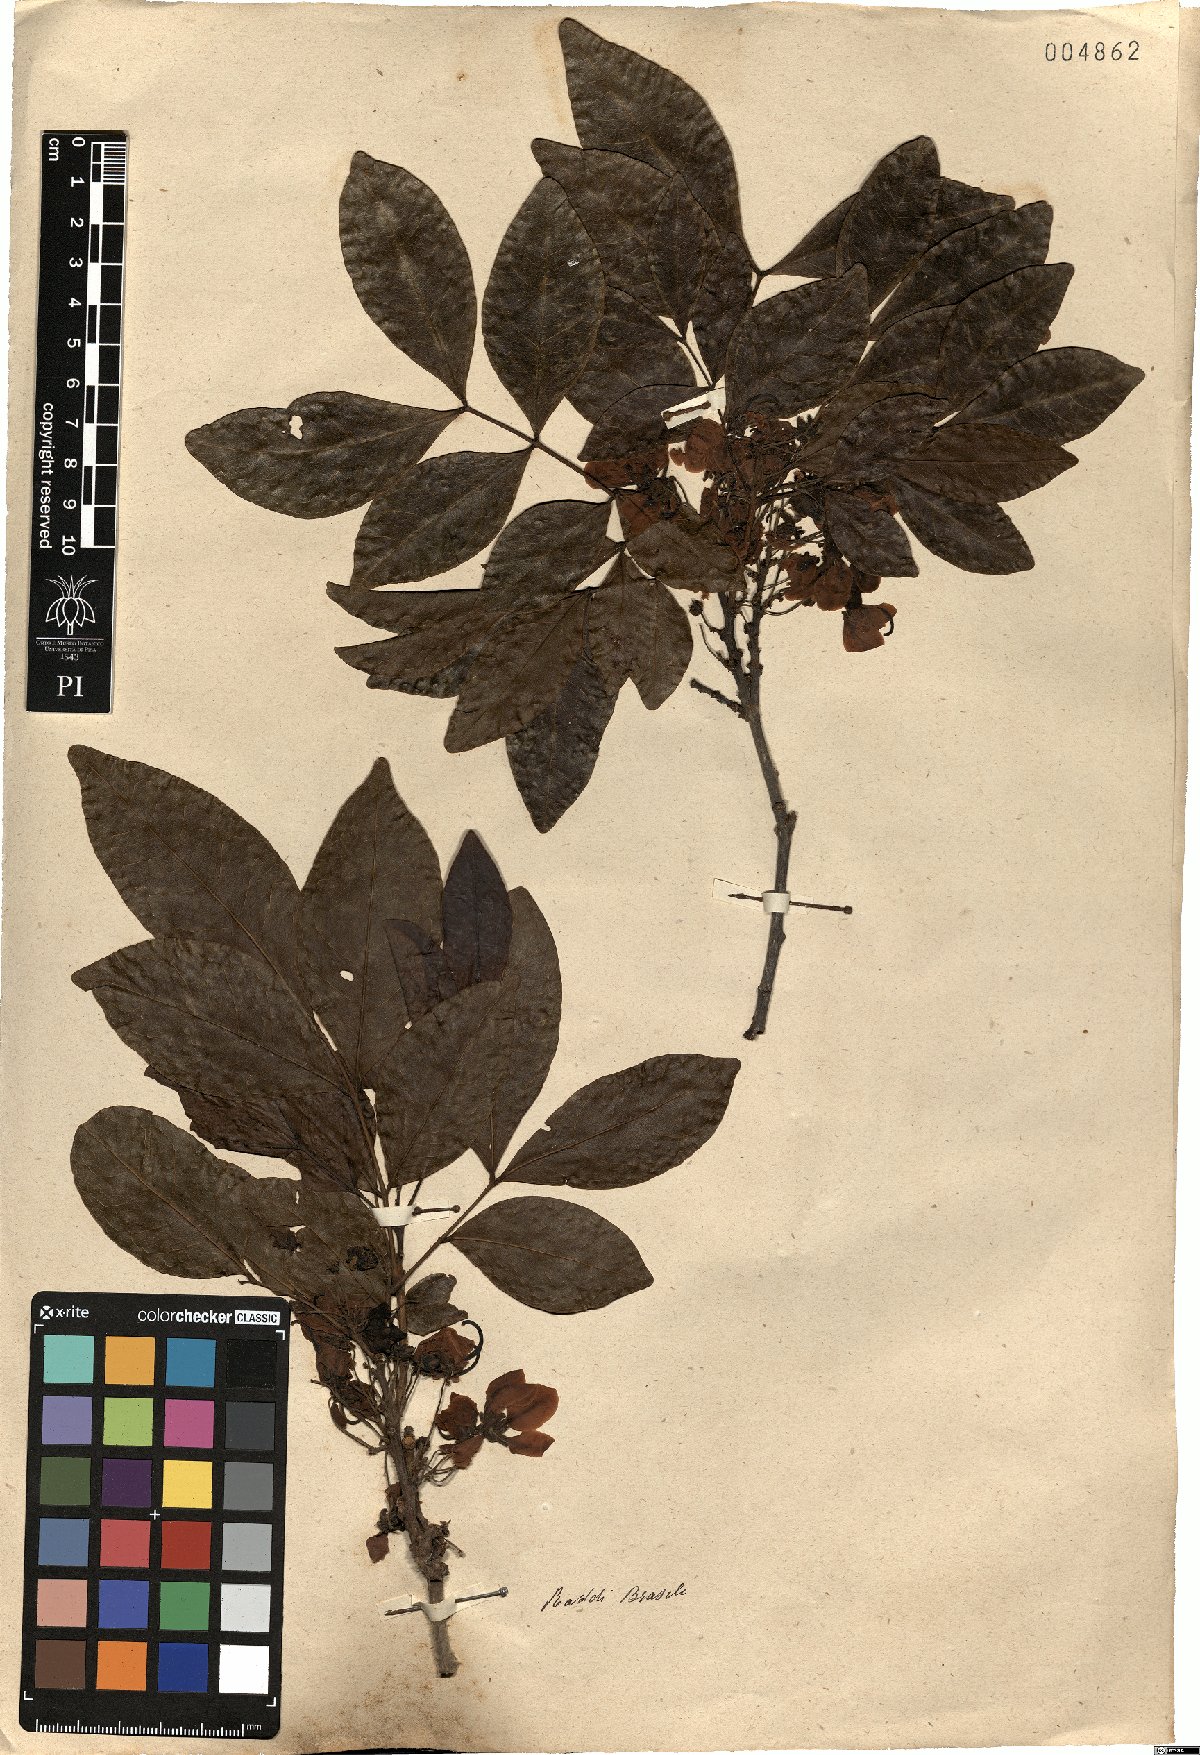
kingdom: Plantae
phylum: Tracheophyta
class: Magnoliopsida
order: Fabales
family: Fabaceae
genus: Cassia
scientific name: Cassia
